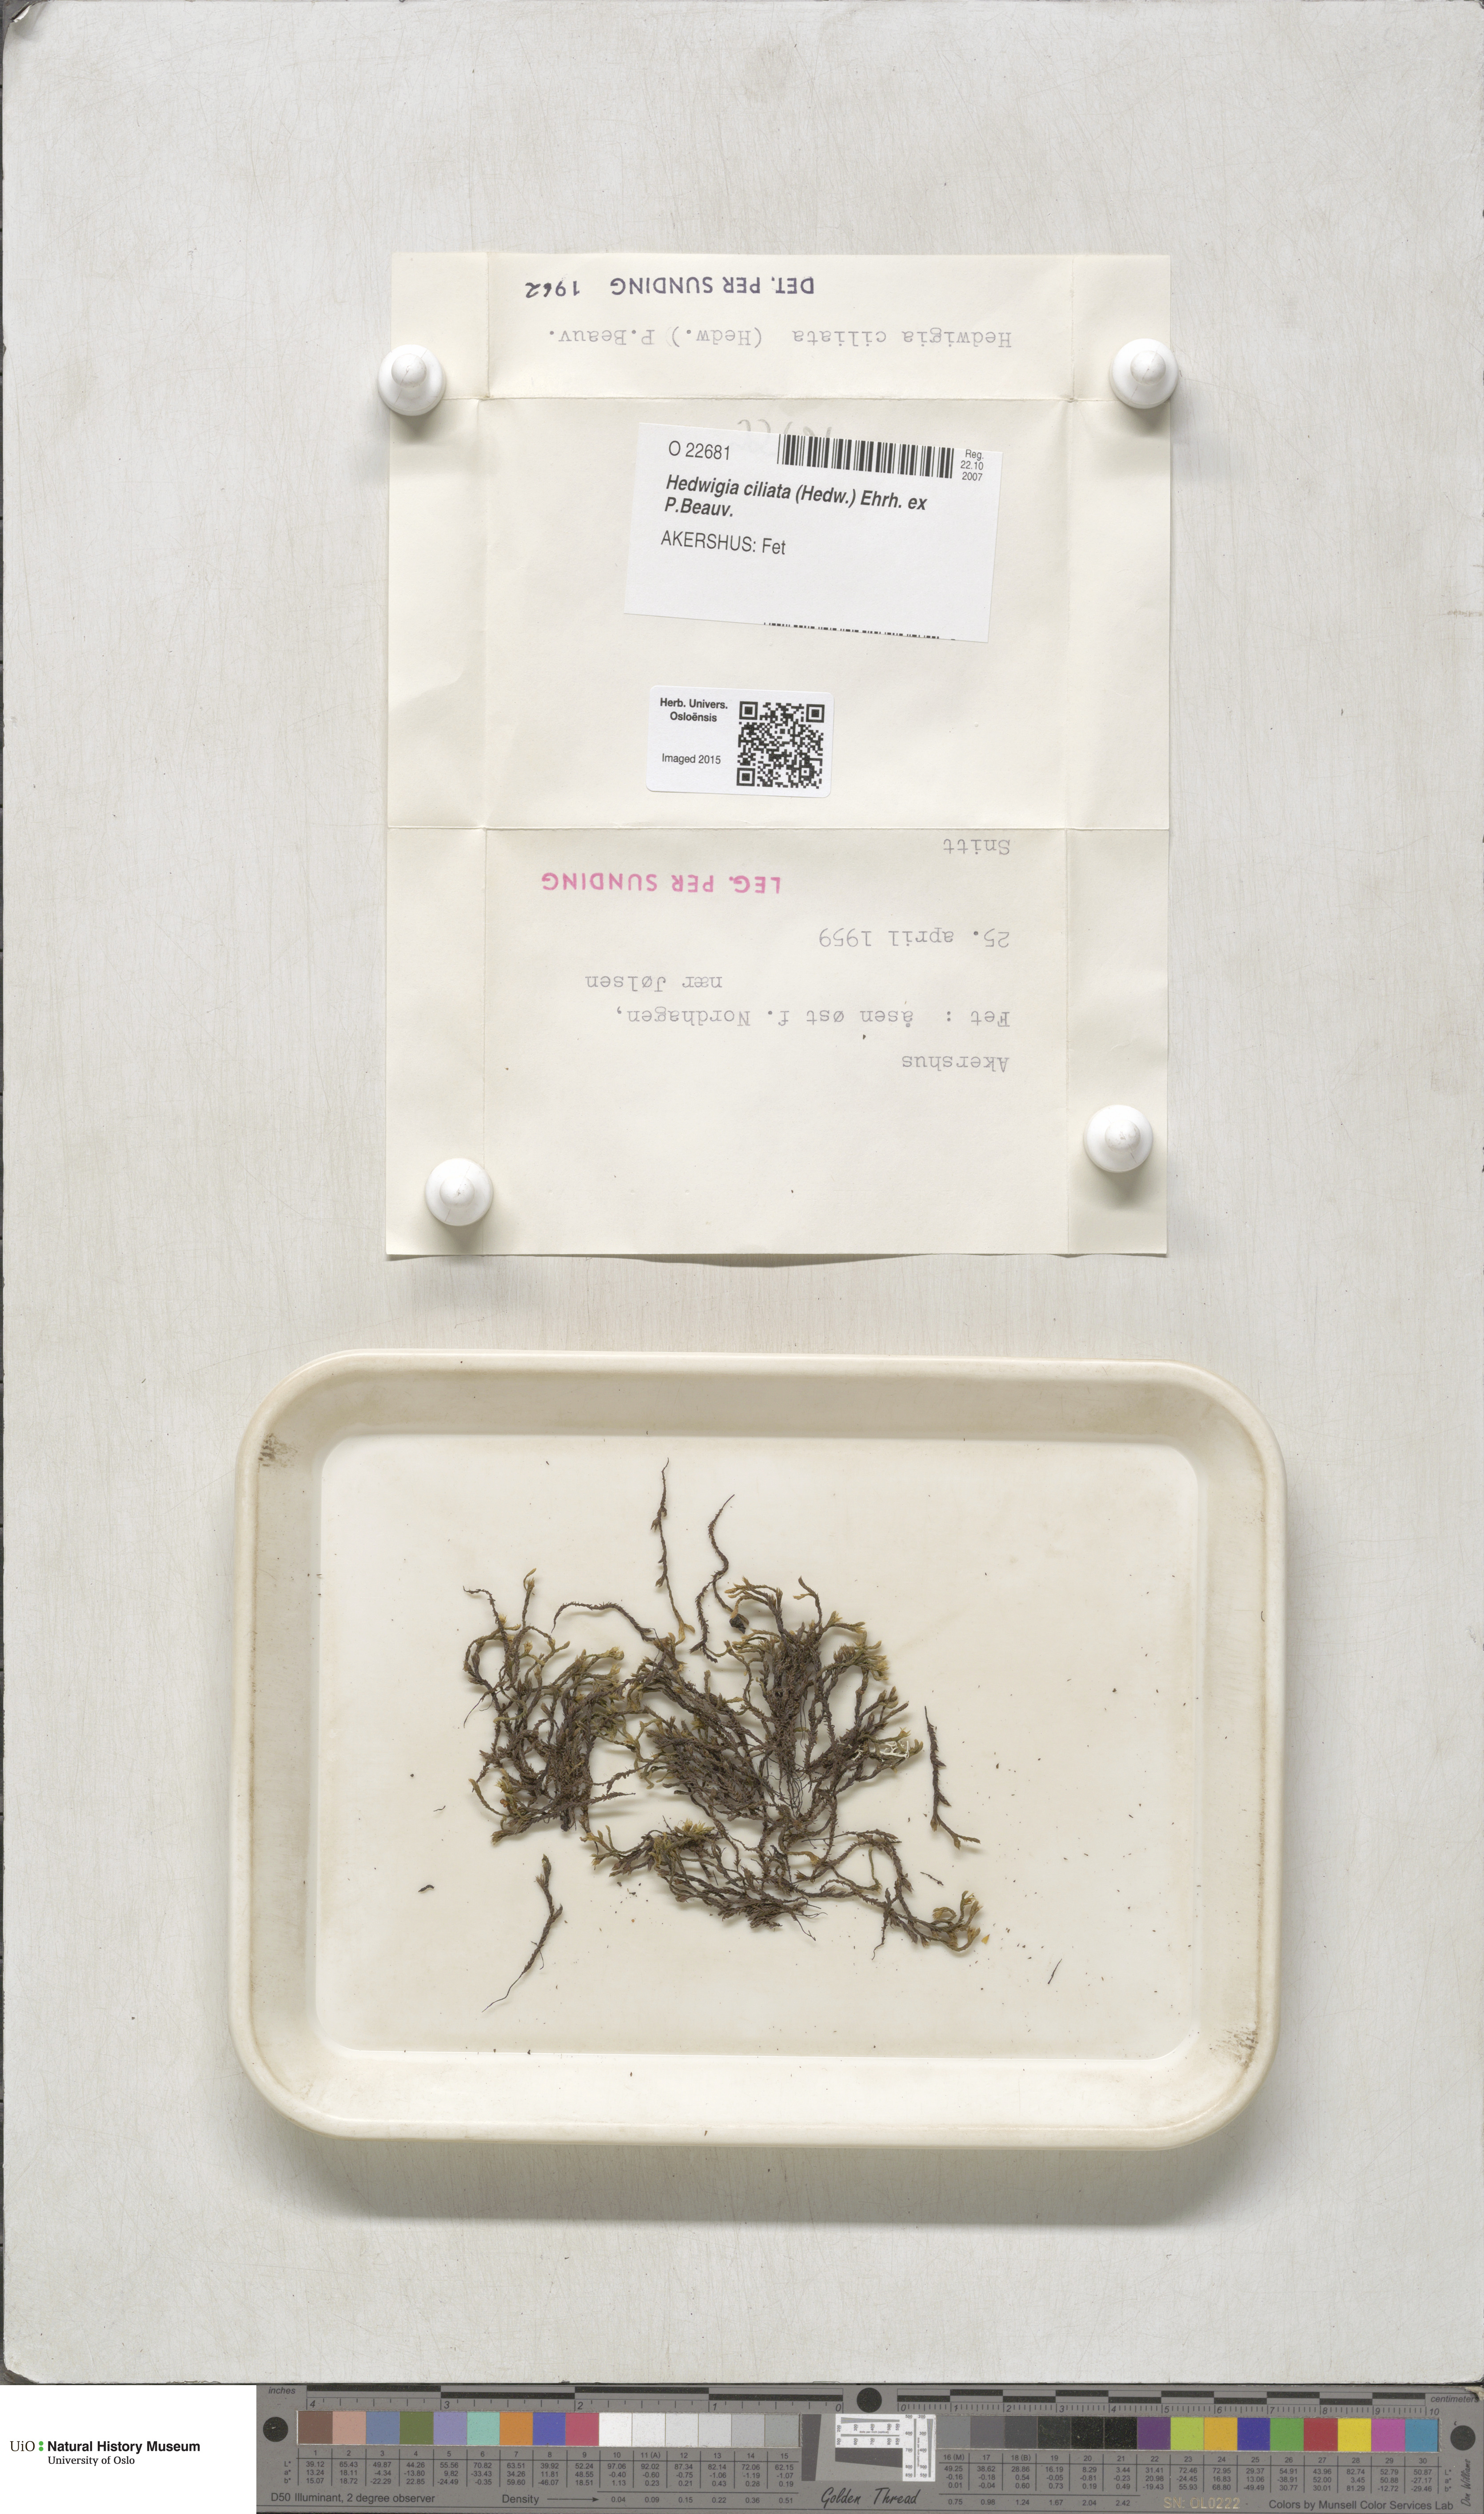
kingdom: Plantae
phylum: Bryophyta
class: Bryopsida
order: Hedwigiales
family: Hedwigiaceae
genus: Hedwigia
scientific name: Hedwigia ciliata
